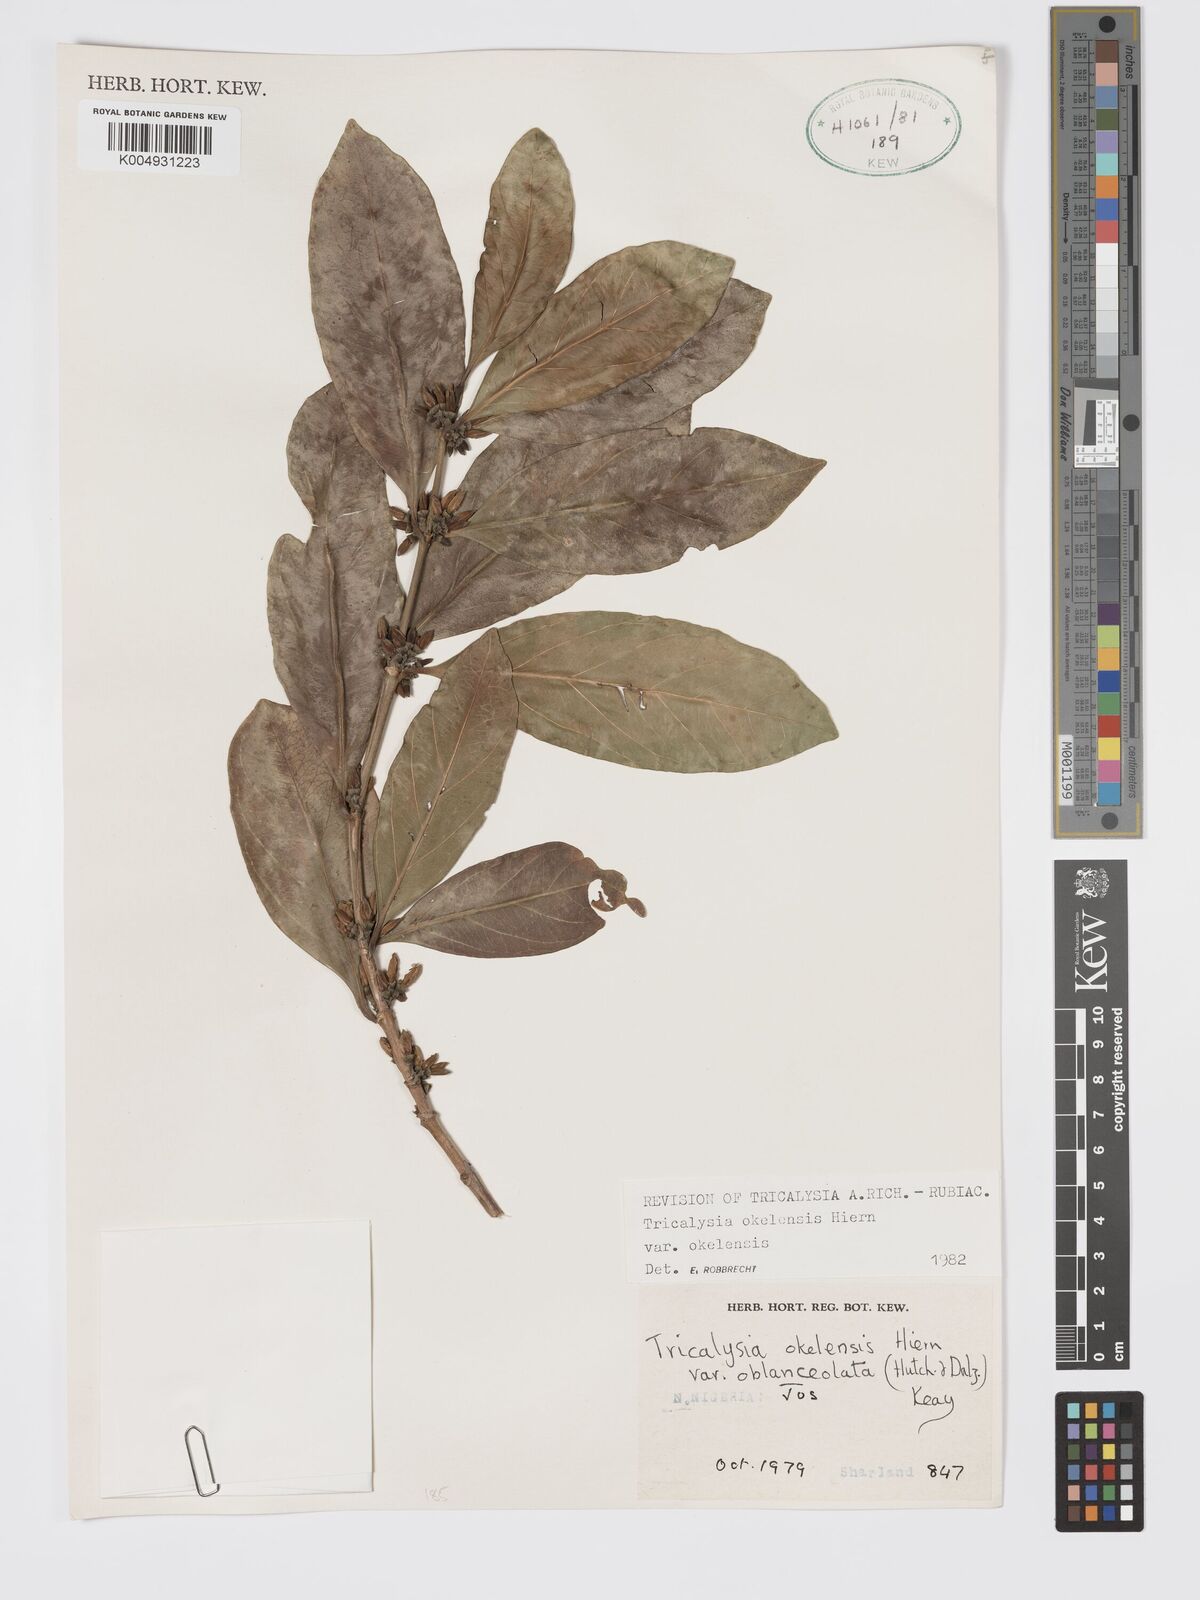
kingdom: Plantae
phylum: Tracheophyta
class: Magnoliopsida
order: Gentianales
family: Rubiaceae
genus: Tricalysia
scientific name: Tricalysia okelensis
